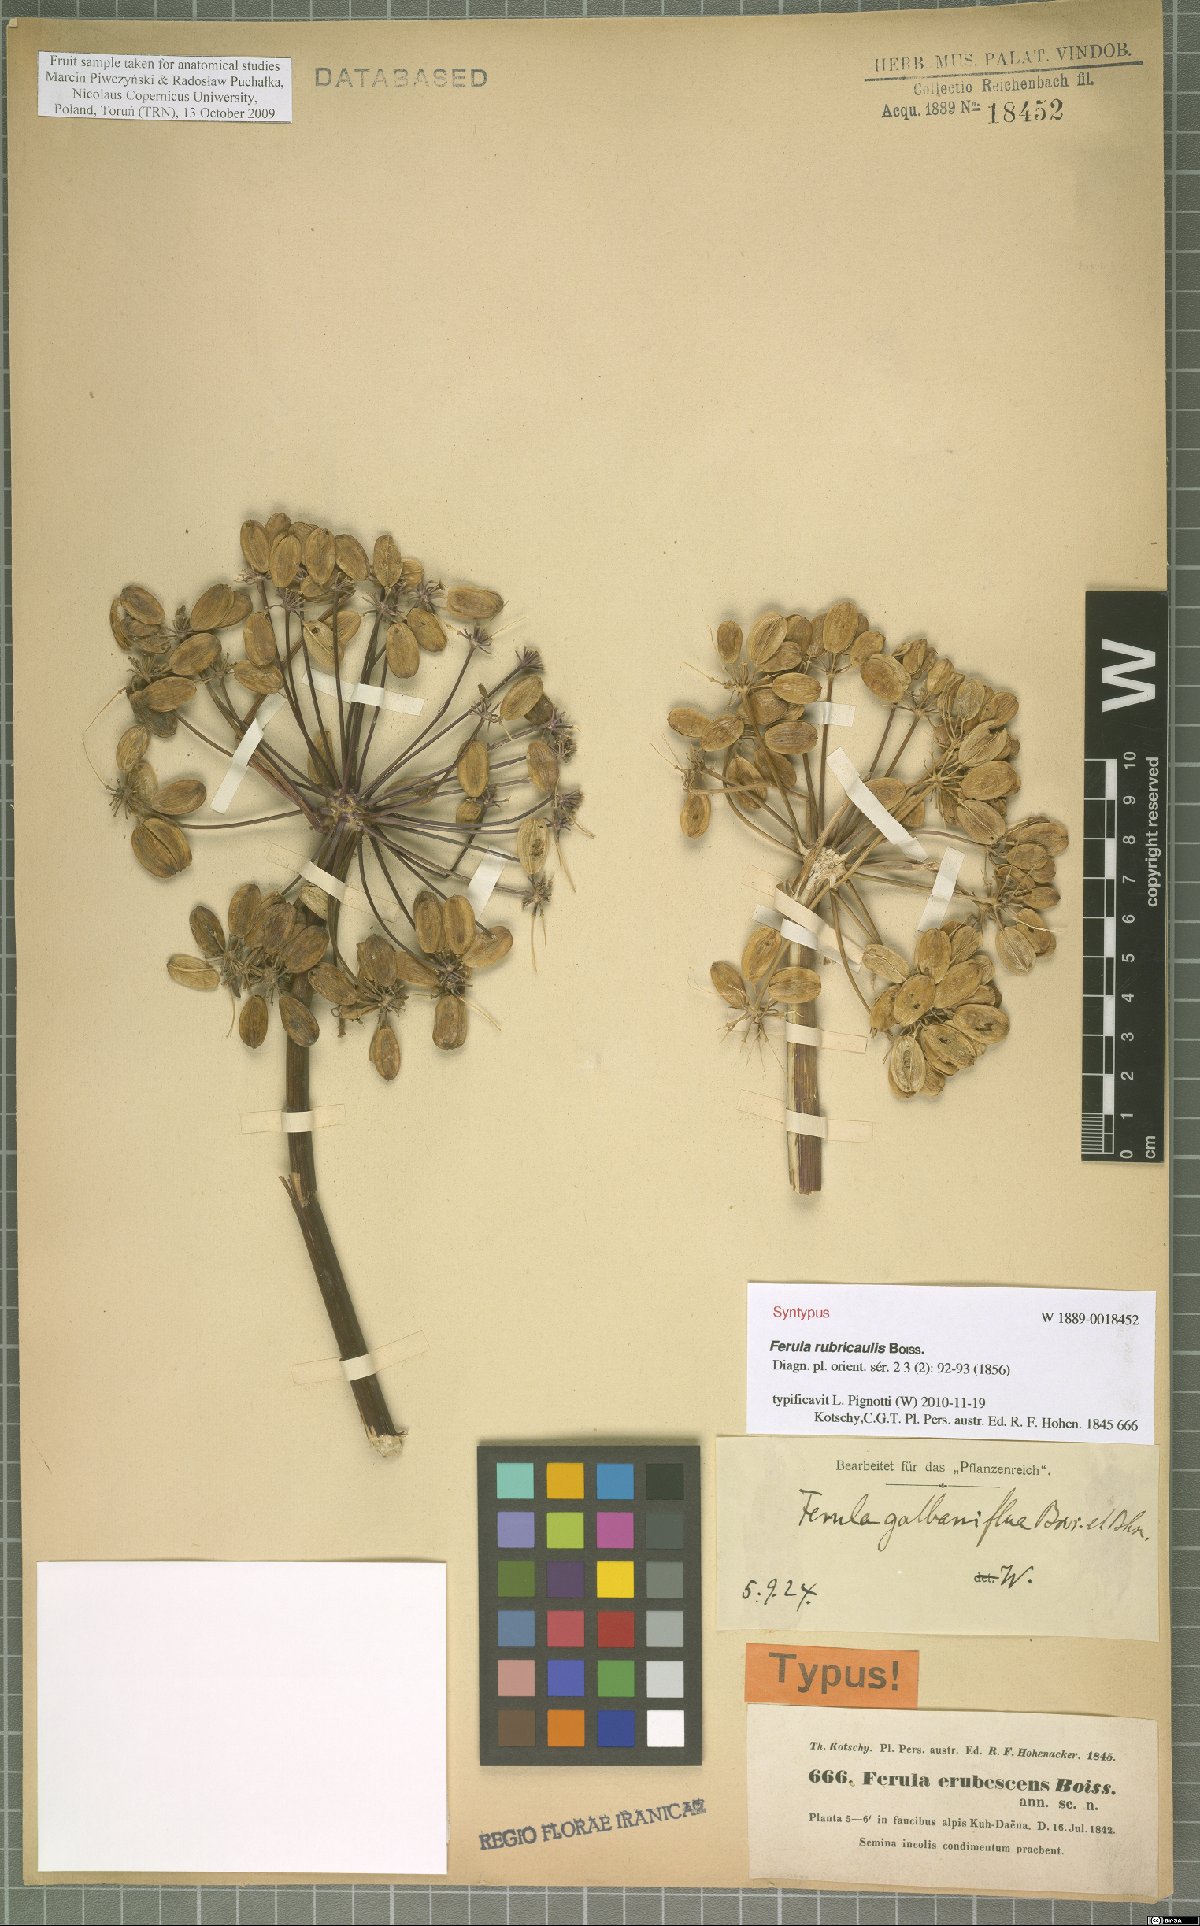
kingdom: Plantae
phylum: Tracheophyta
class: Magnoliopsida
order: Apiales
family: Apiaceae
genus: Ferula
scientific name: Ferula rubricaulis
